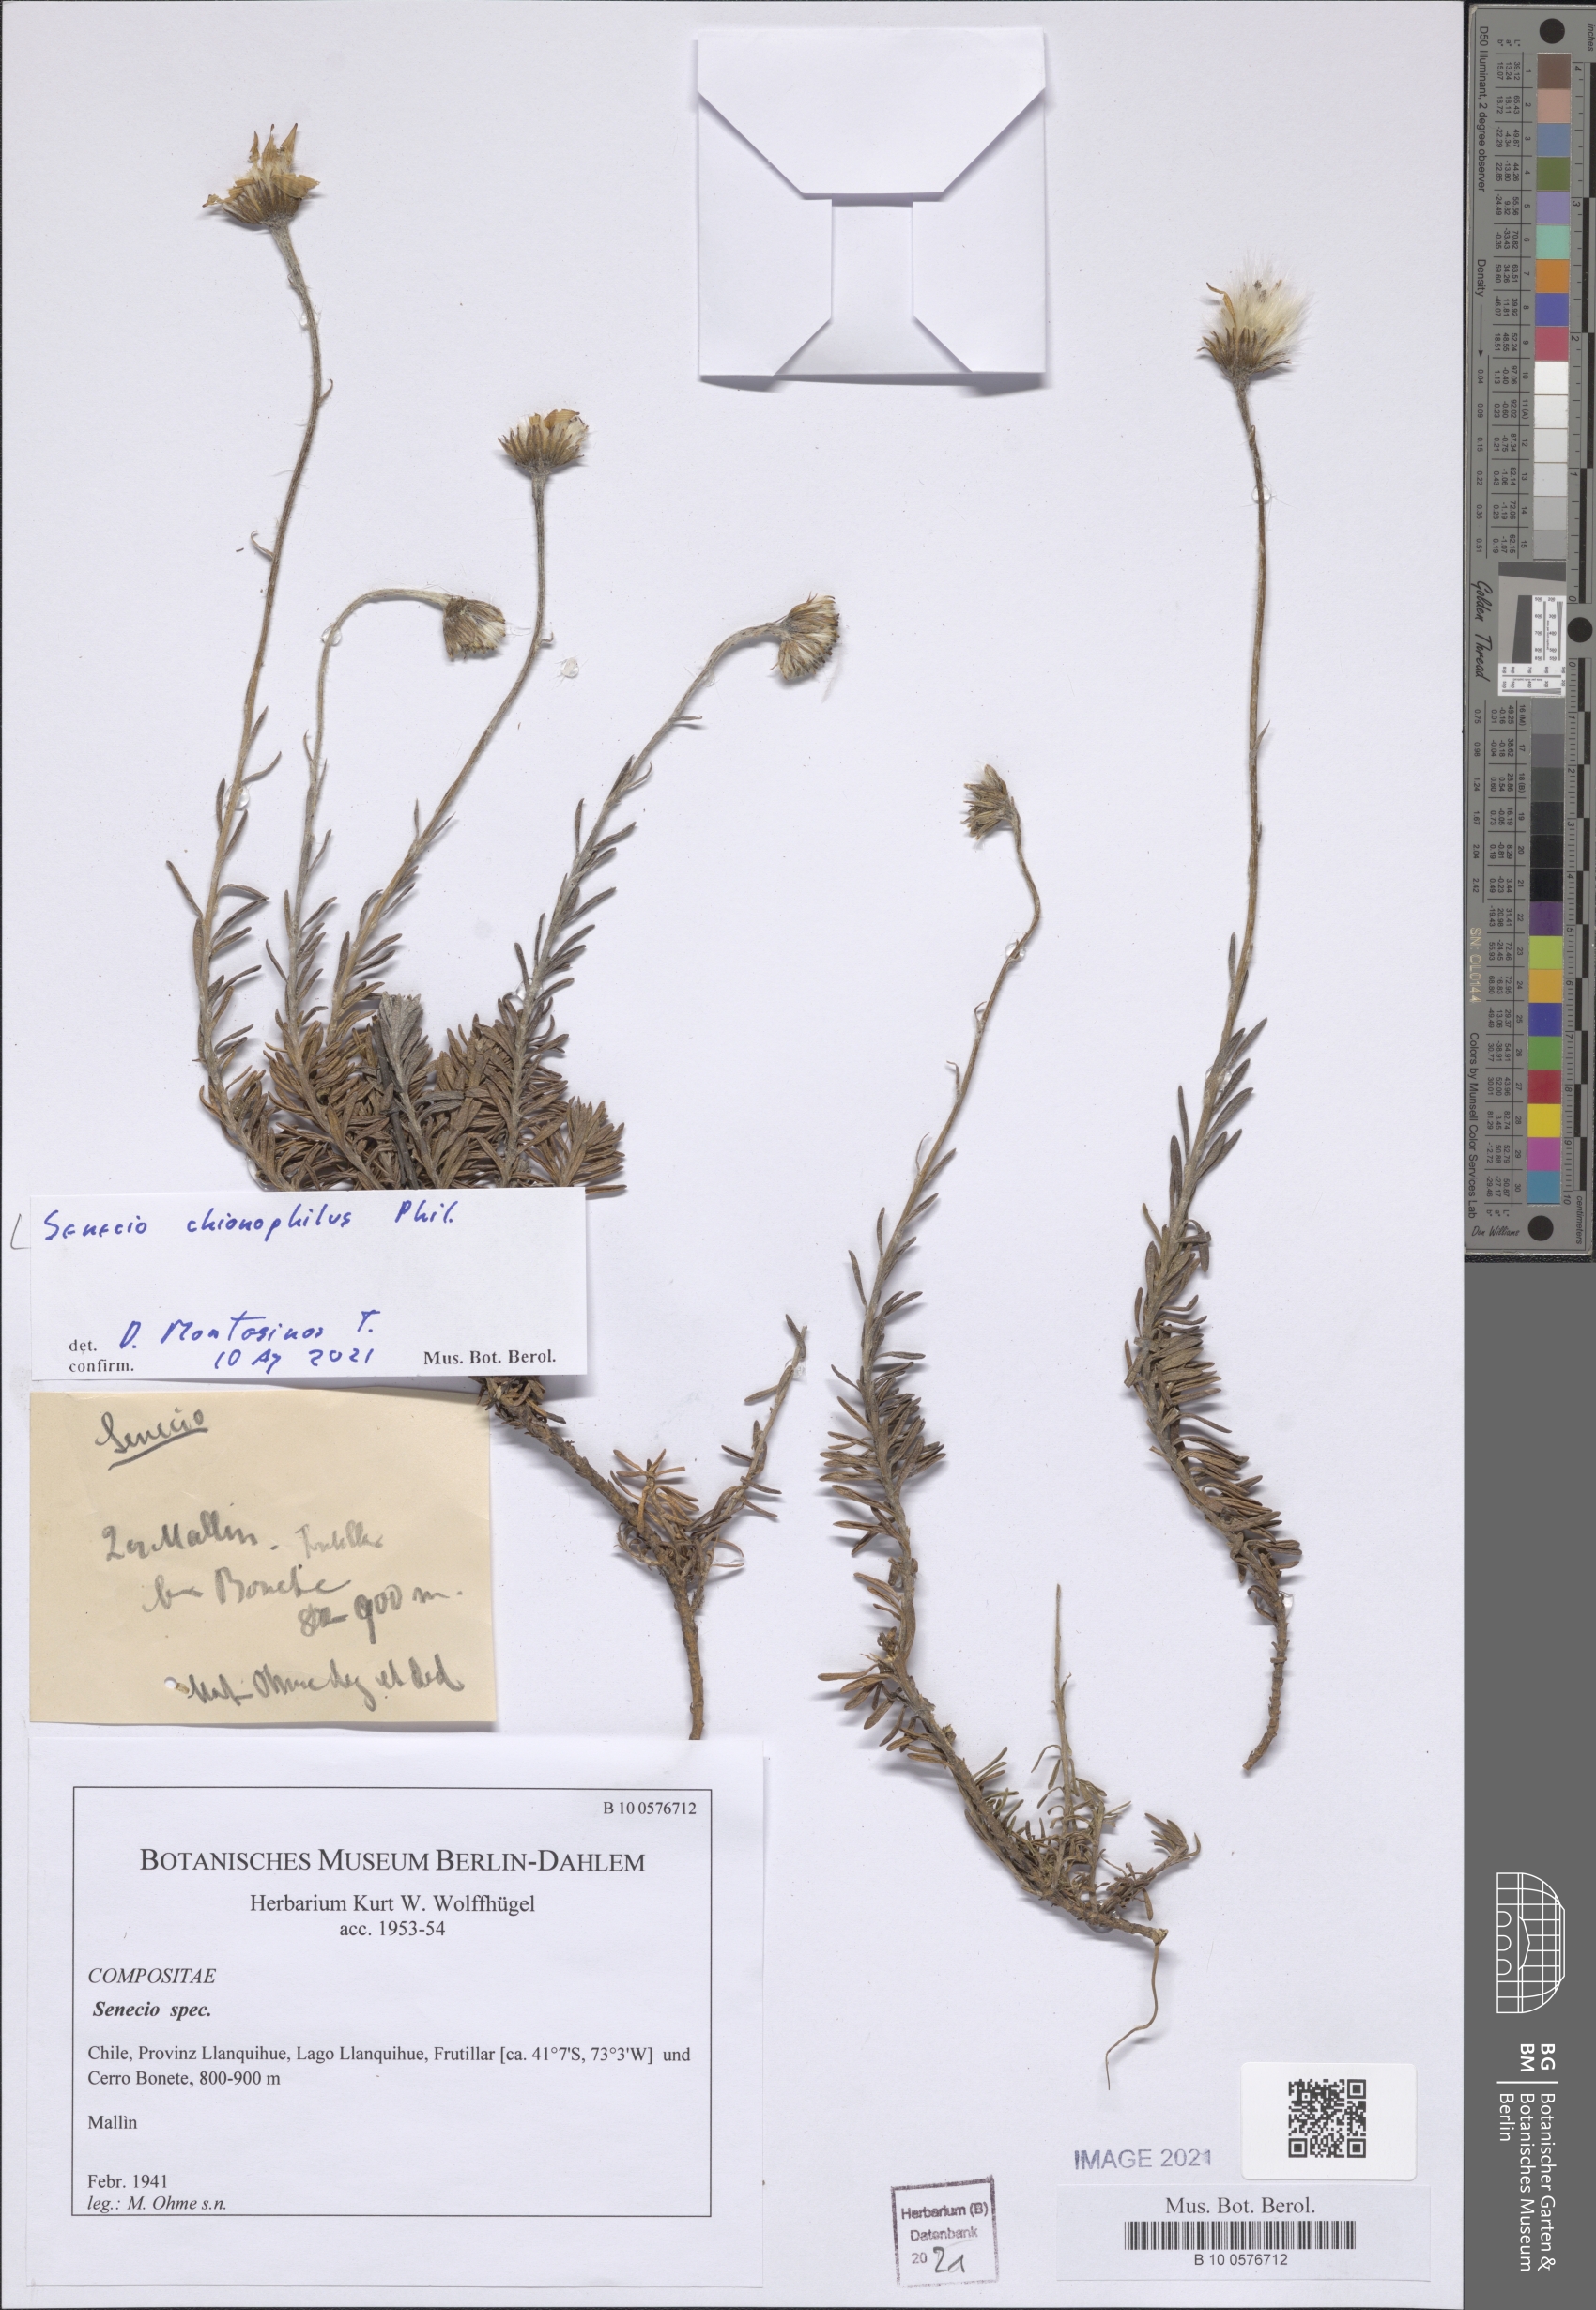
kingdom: Plantae
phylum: Tracheophyta
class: Magnoliopsida
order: Asterales
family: Asteraceae
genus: Senecio
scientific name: Senecio chionophilus
